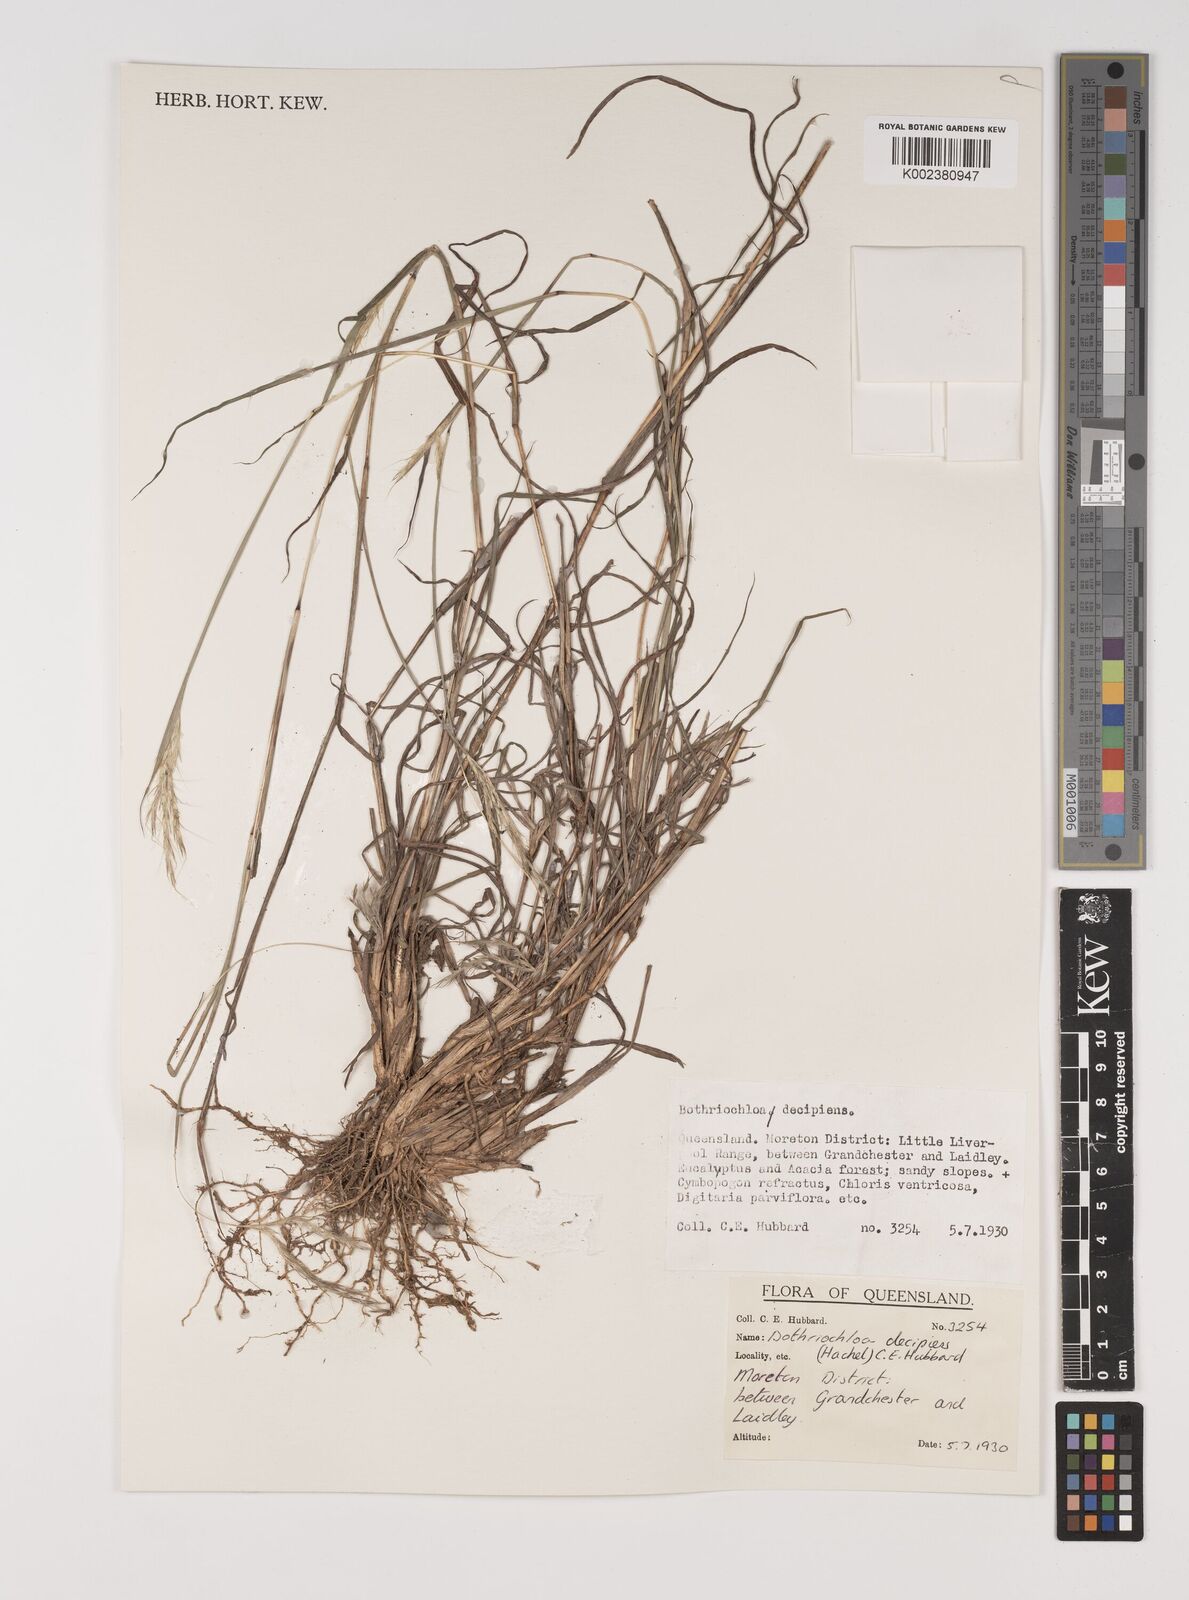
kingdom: Plantae
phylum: Tracheophyta
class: Liliopsida
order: Poales
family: Poaceae
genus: Bothriochloa
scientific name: Bothriochloa decipiens
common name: Pitted-bluegrass
